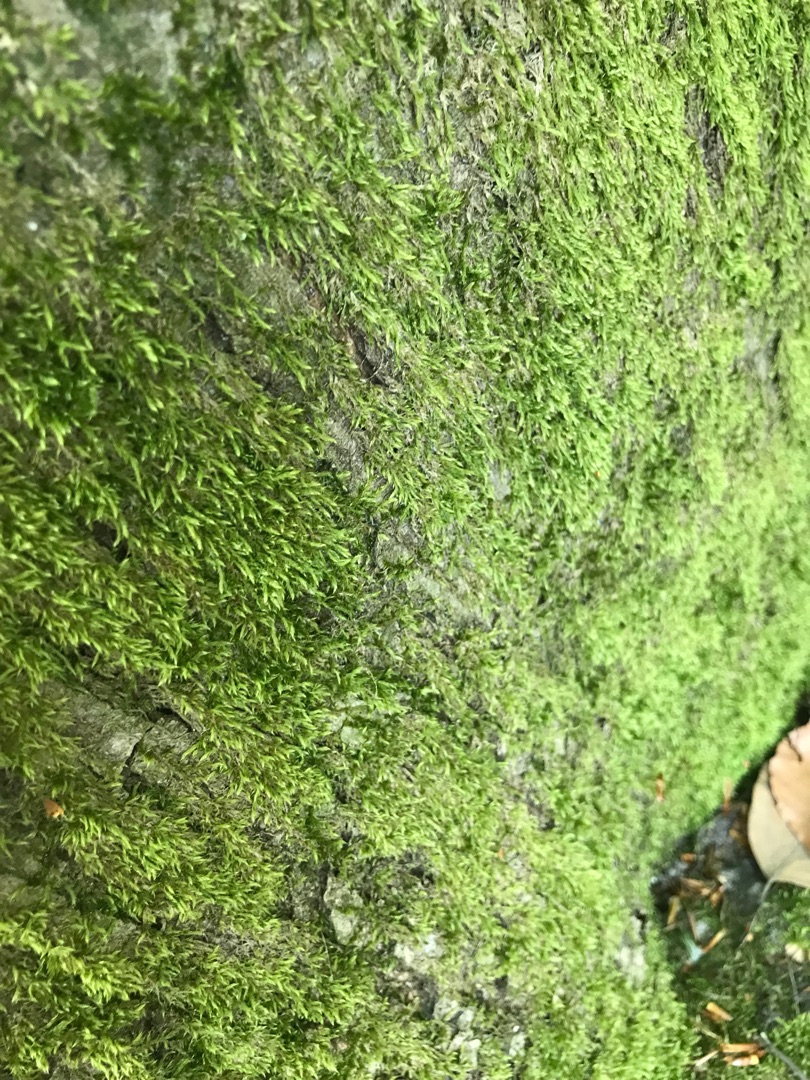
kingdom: Plantae
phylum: Bryophyta
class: Bryopsida
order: Hypnales
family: Hypnaceae
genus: Hypnum
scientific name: Hypnum
